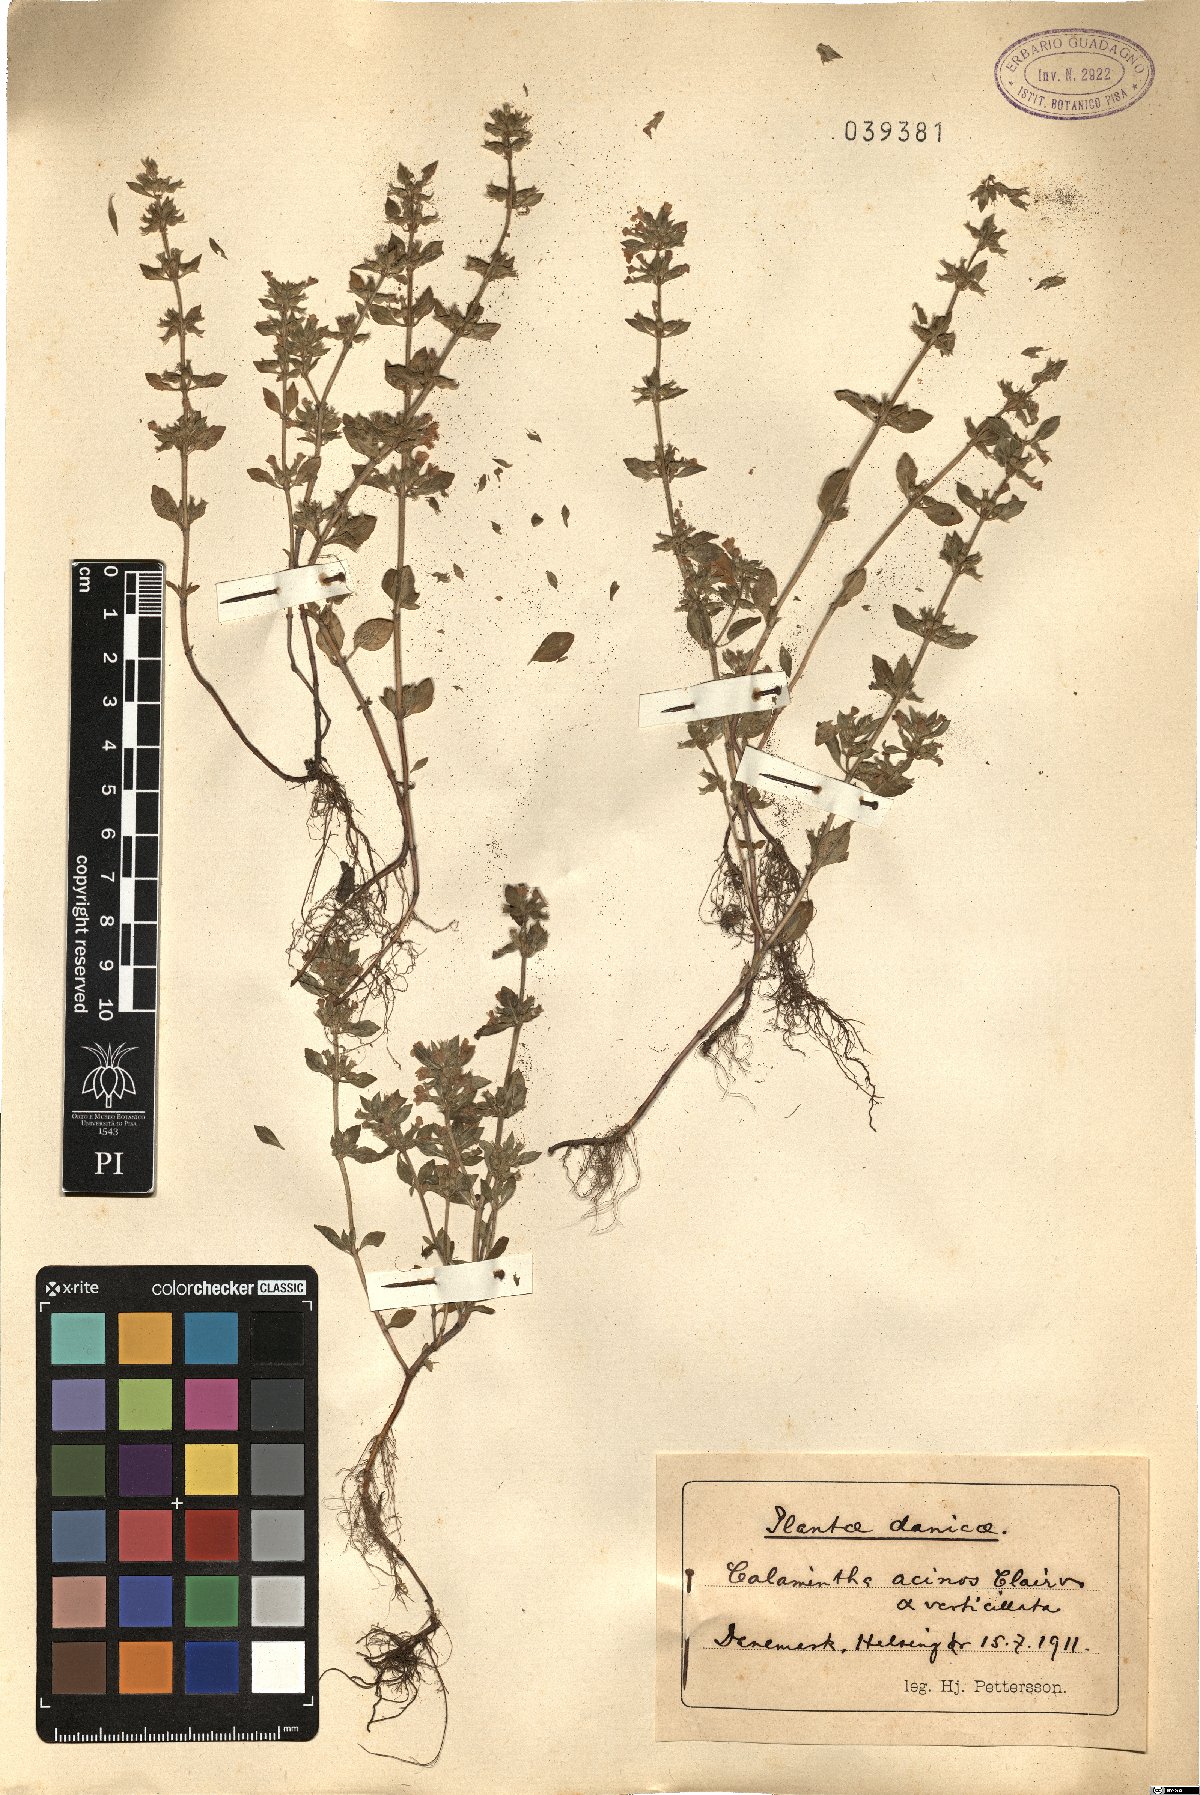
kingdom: Plantae
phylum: Tracheophyta
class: Magnoliopsida
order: Lamiales
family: Lamiaceae
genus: Clinopodium
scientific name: Clinopodium acinos
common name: Basil thyme
